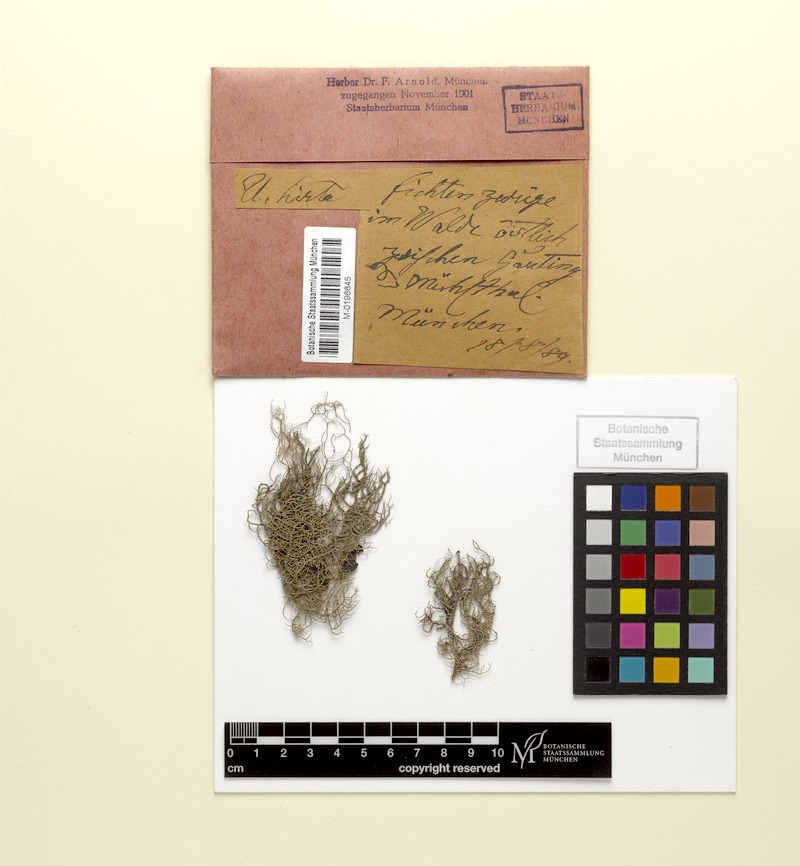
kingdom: Fungi
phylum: Ascomycota
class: Lecanoromycetes
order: Lecanorales
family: Parmeliaceae
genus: Usnea
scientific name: Usnea hirta
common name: Bristly beard lichen
